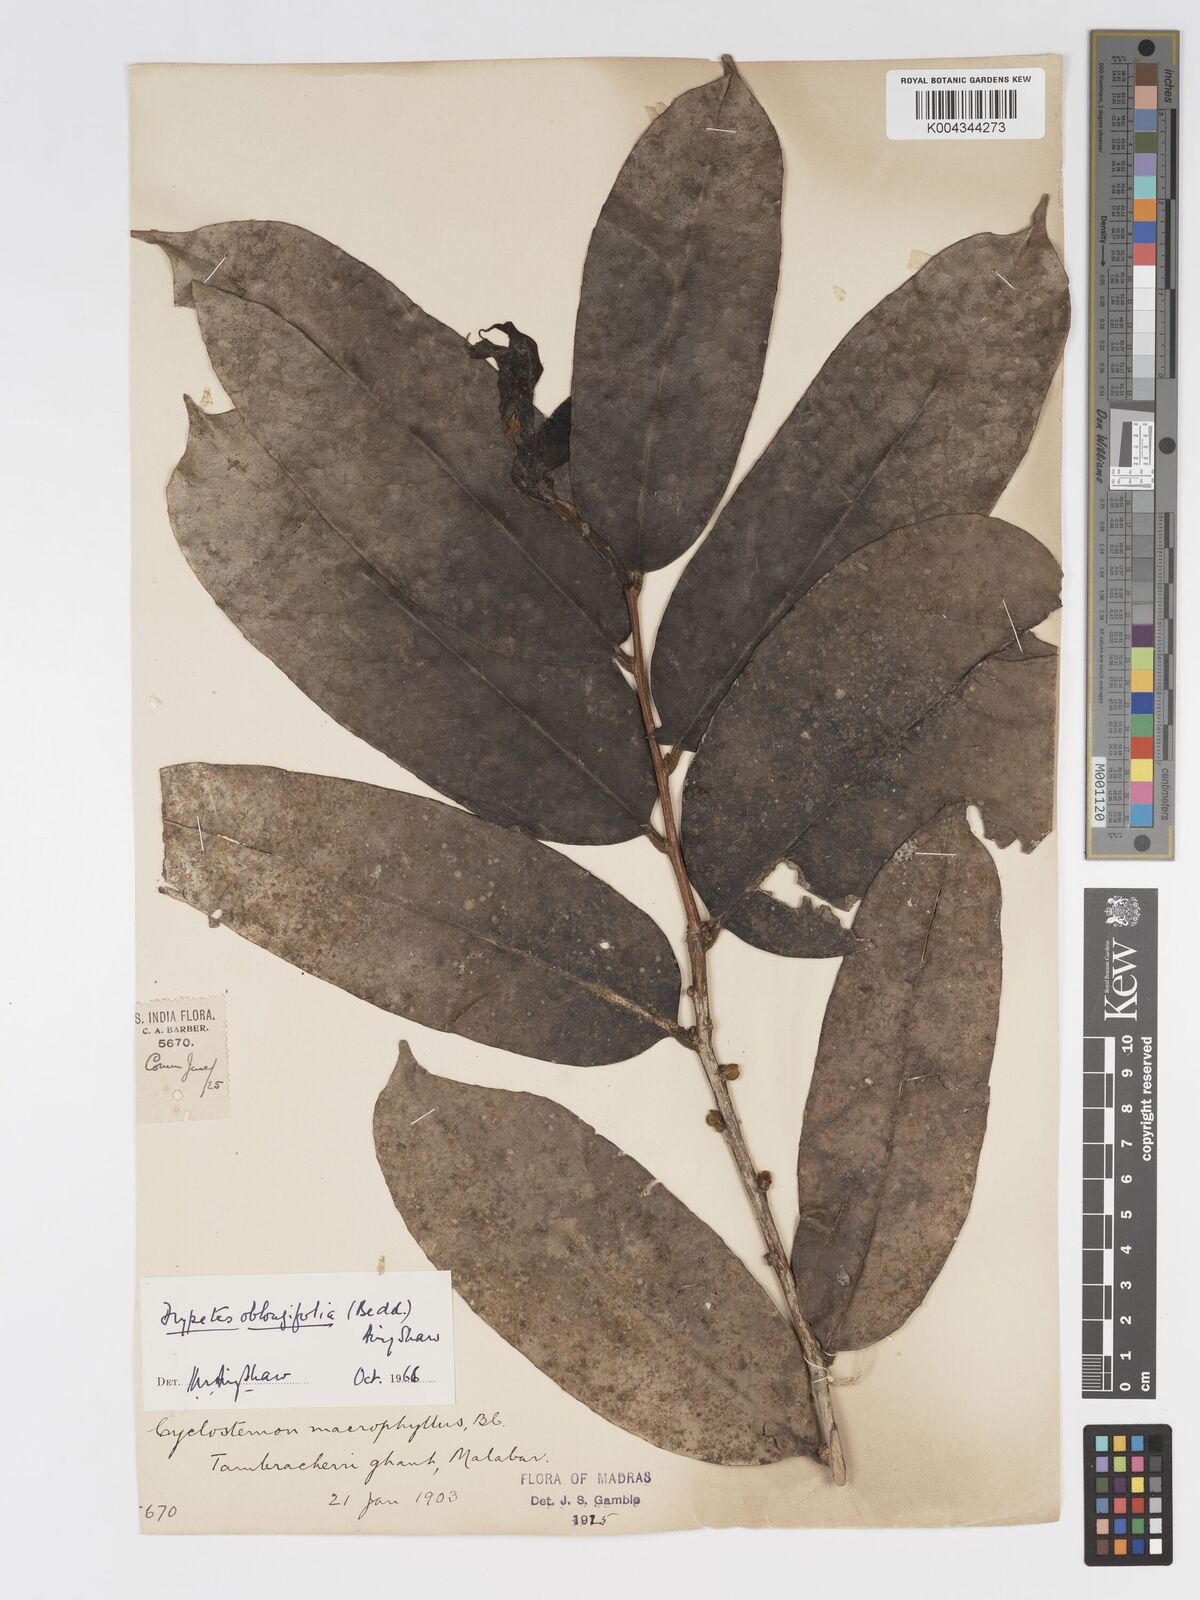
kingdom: Plantae
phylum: Tracheophyta
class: Magnoliopsida
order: Malpighiales
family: Putranjivaceae
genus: Drypetes
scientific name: Drypetes oblongifolia
